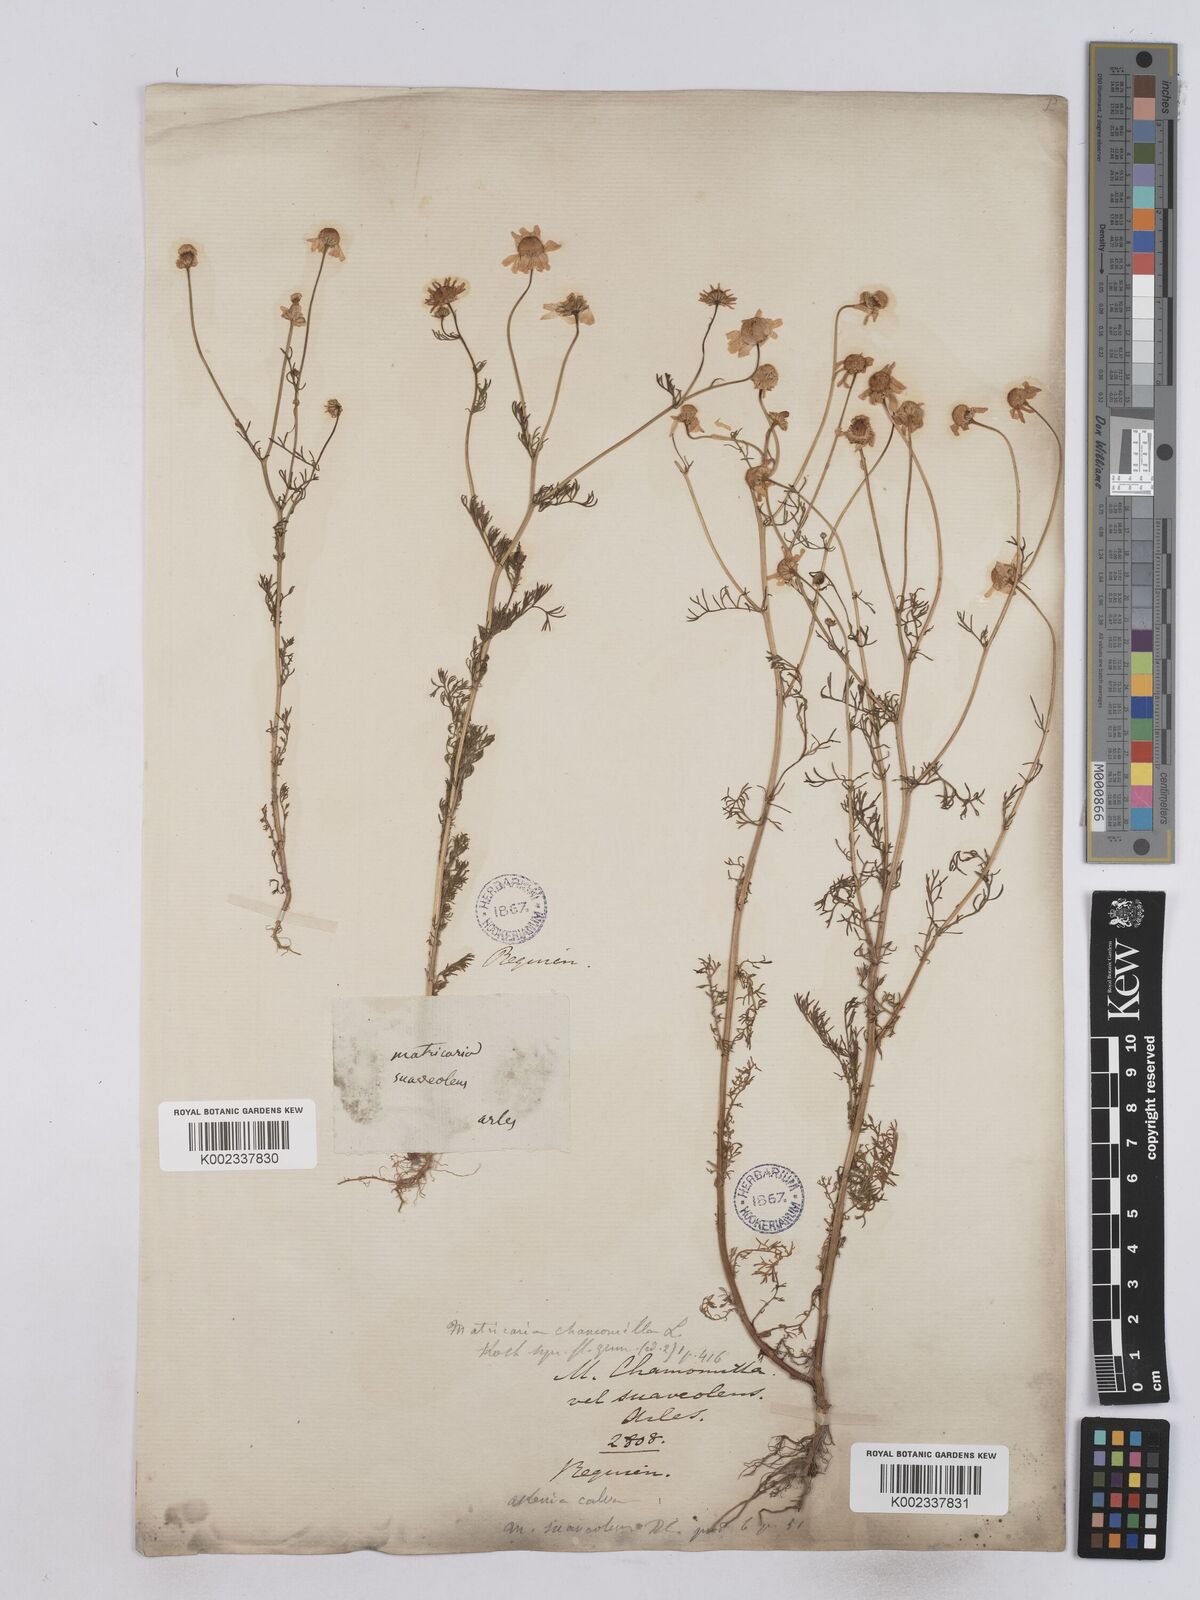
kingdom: Plantae
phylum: Tracheophyta
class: Magnoliopsida
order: Asterales
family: Asteraceae
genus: Matricaria
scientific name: Matricaria chamomilla
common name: Scented mayweed
